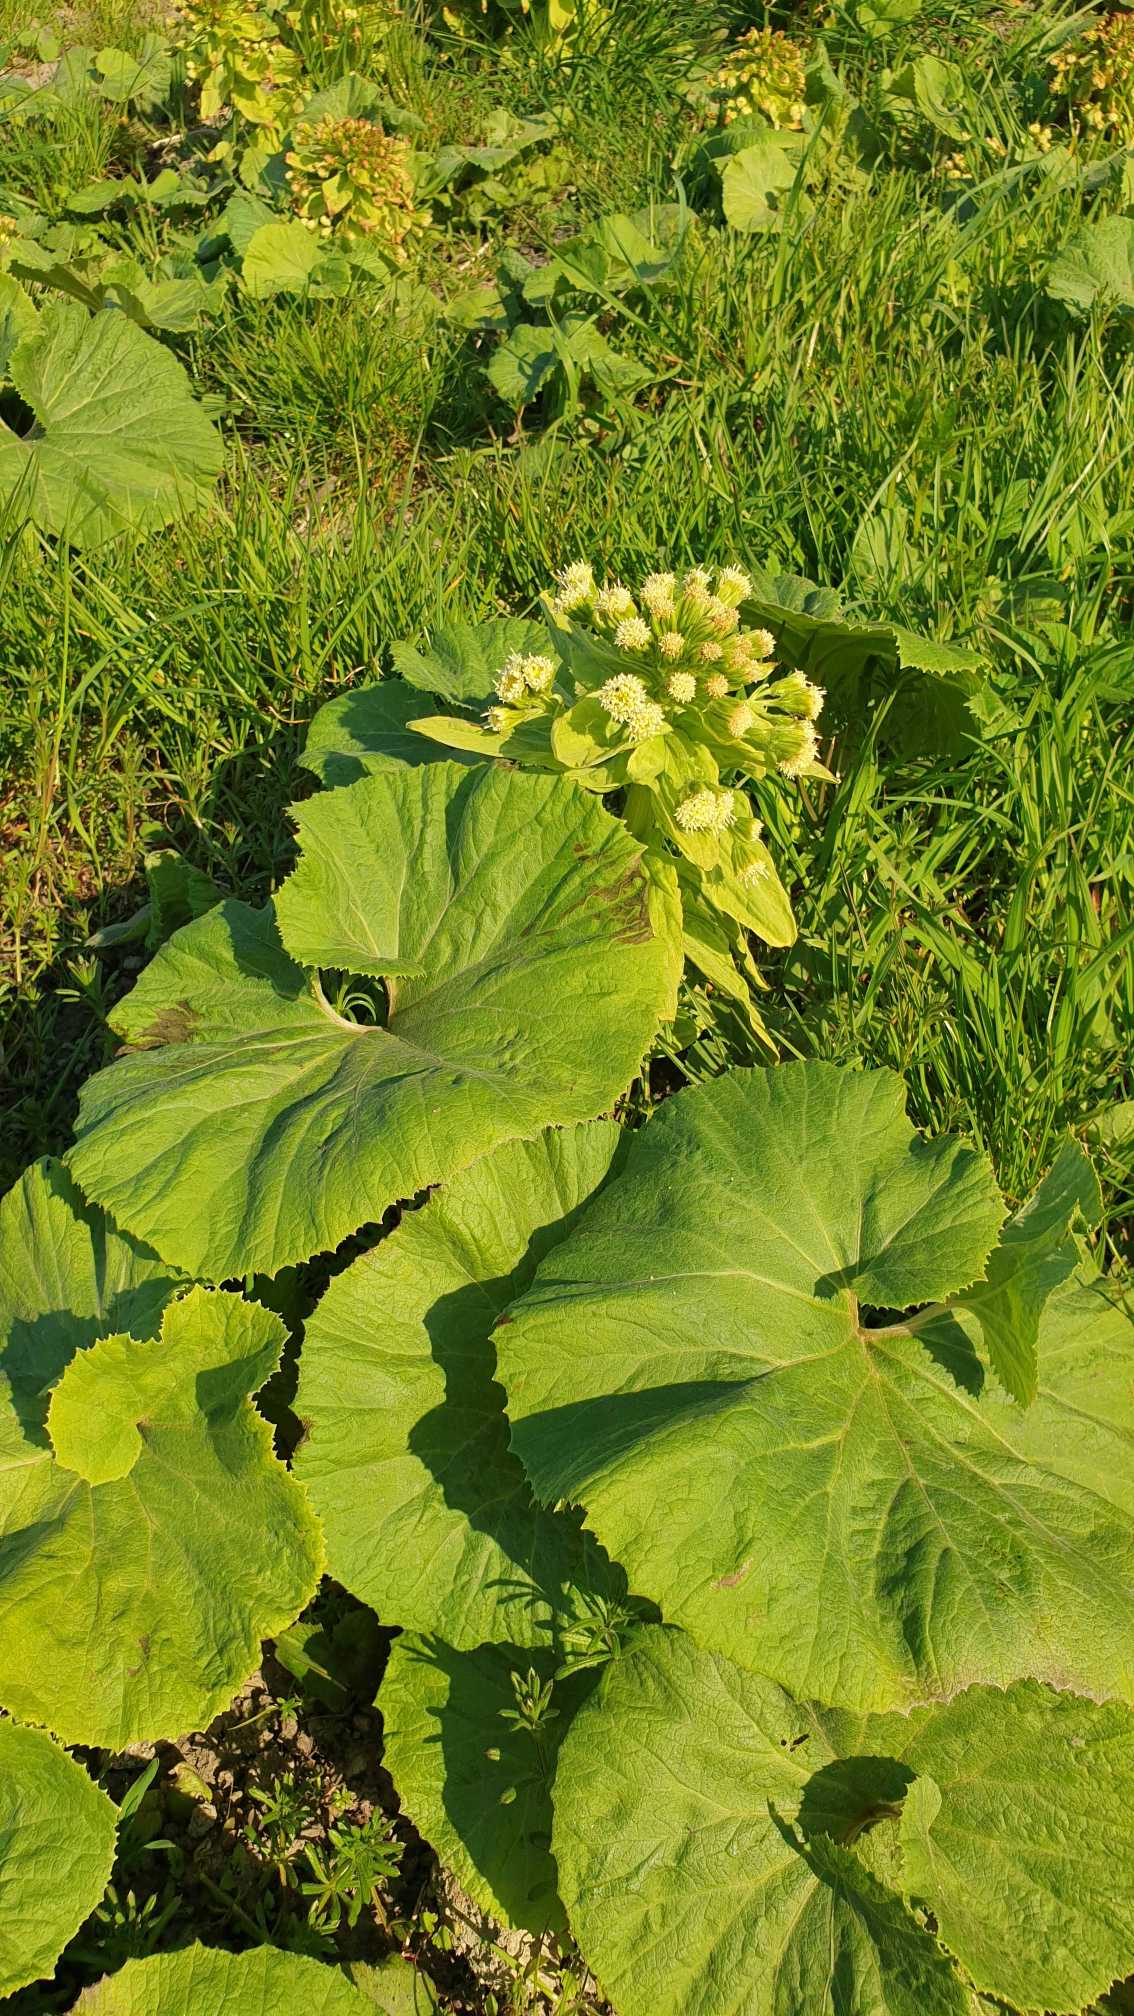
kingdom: Plantae
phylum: Tracheophyta
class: Magnoliopsida
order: Asterales
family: Asteraceae
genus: Petasites
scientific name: Petasites japonicus
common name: Japansk hestehov
